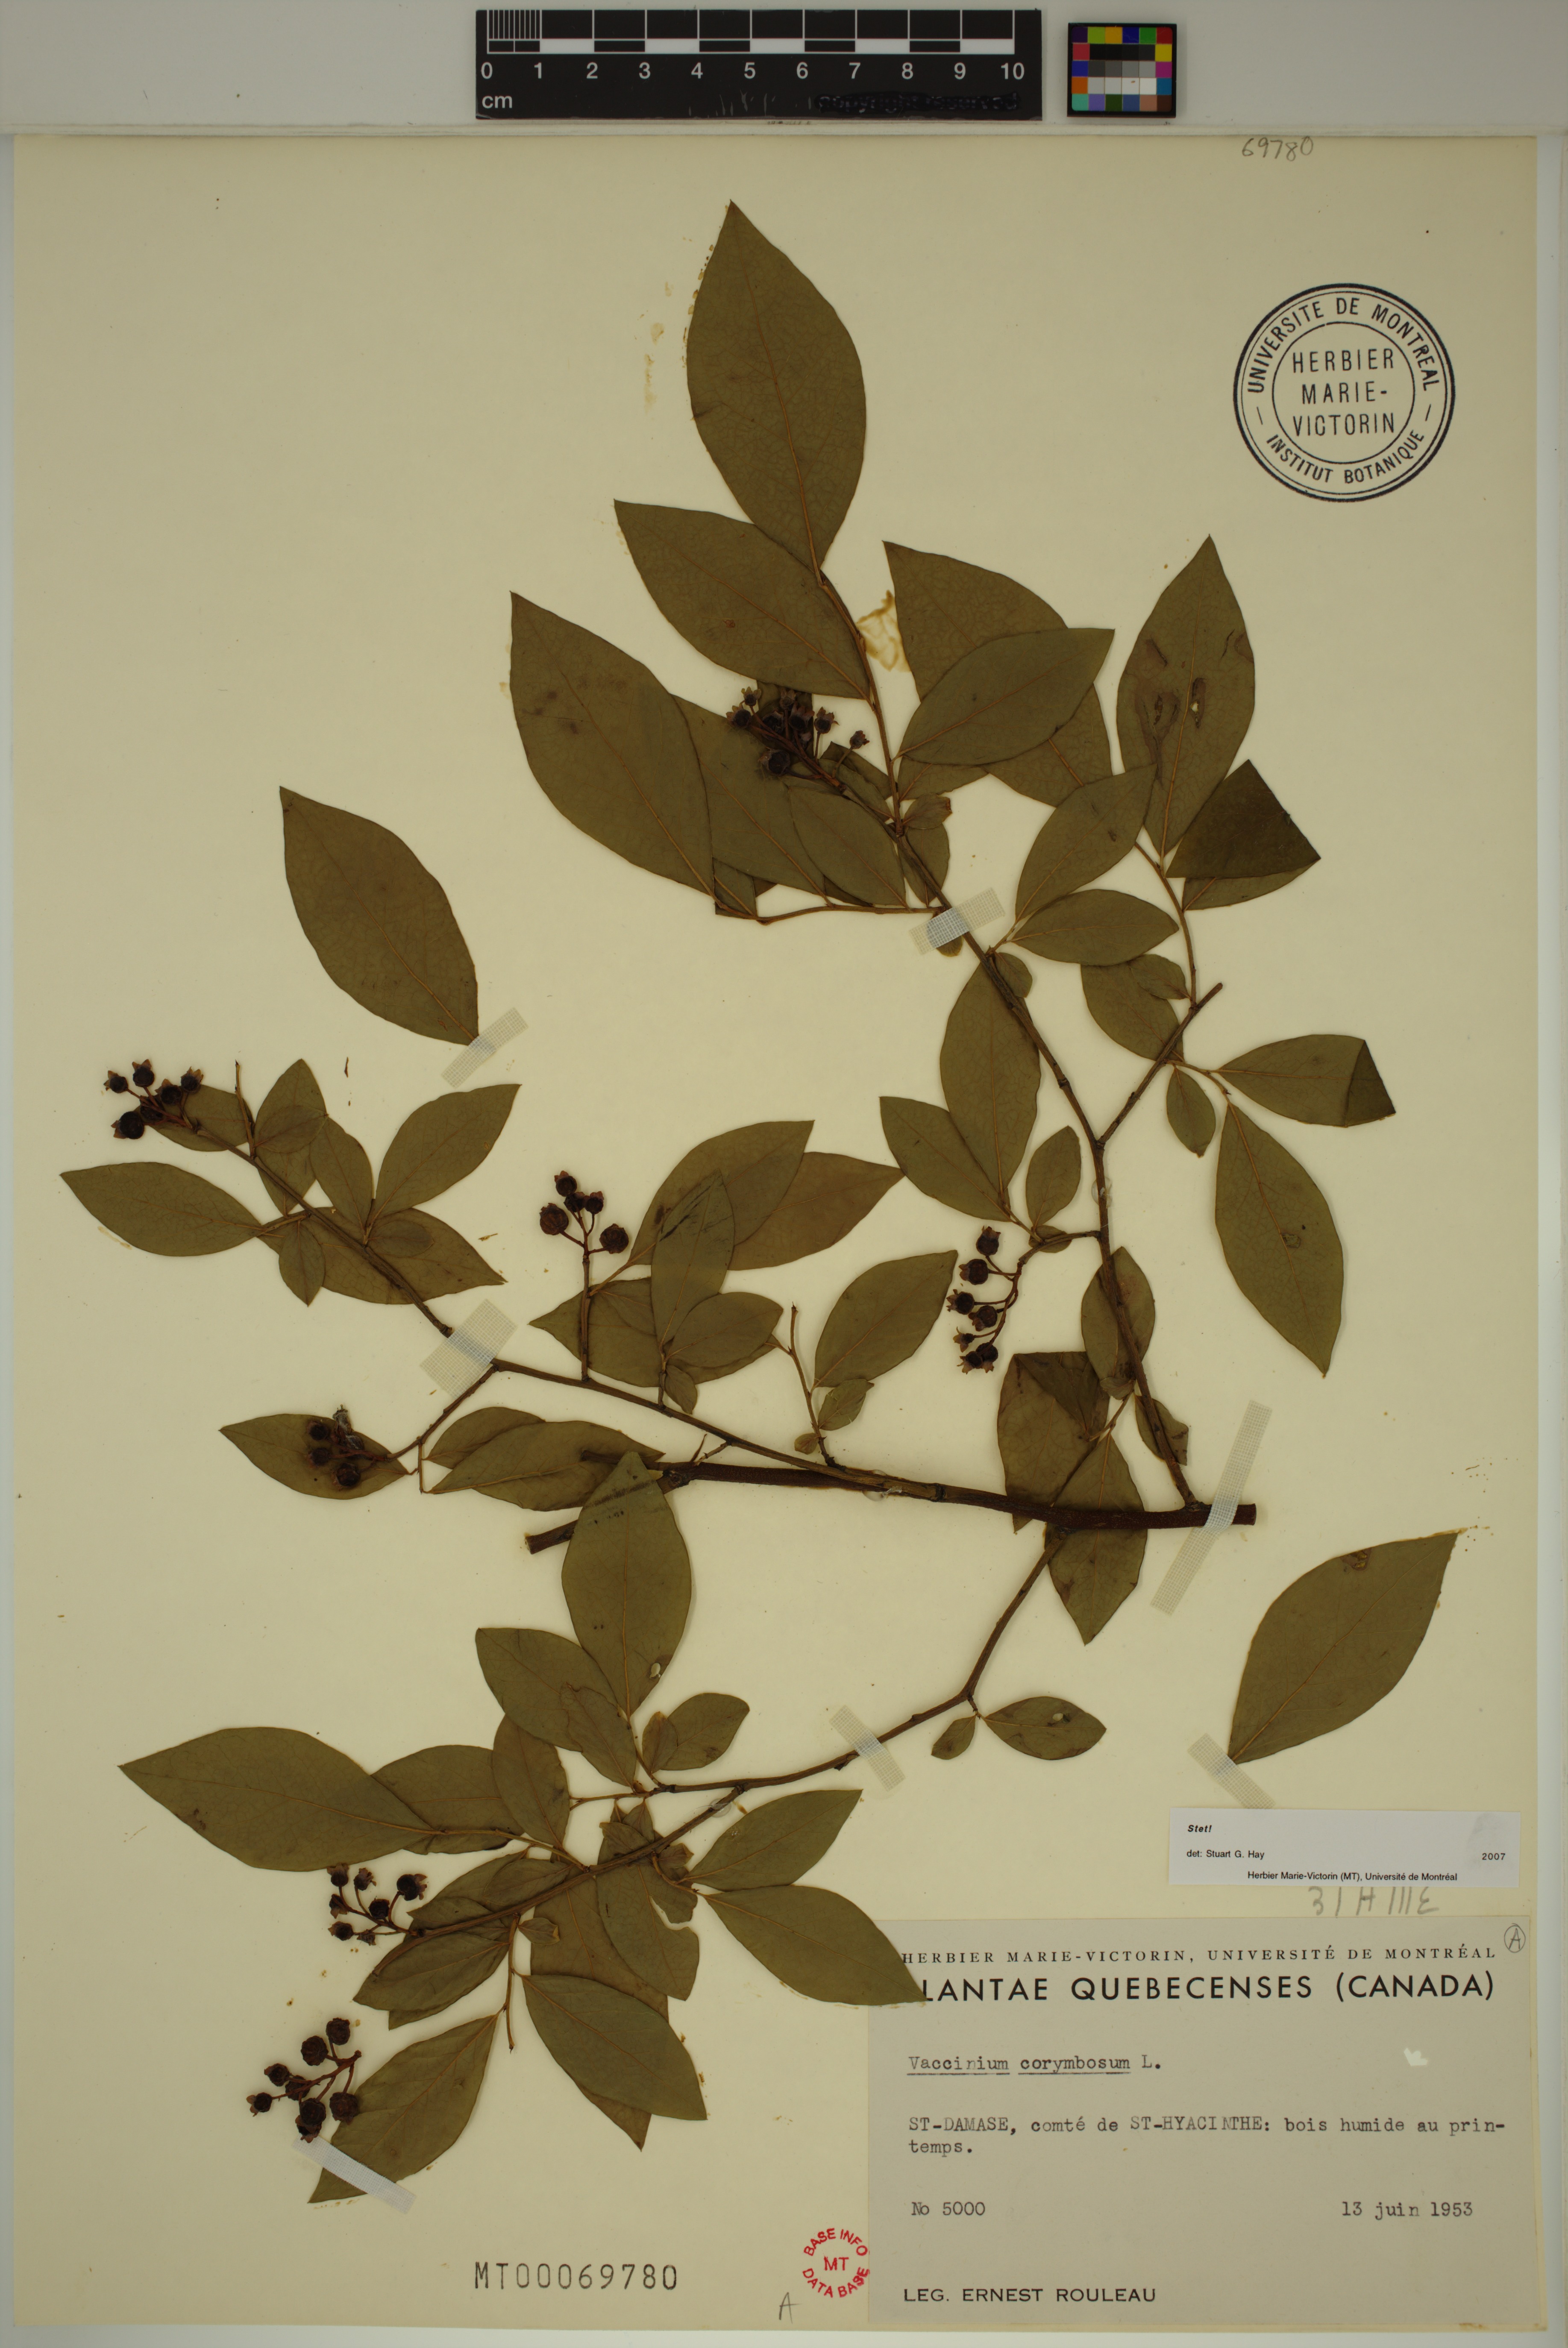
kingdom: Plantae
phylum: Tracheophyta
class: Magnoliopsida
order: Ericales
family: Ericaceae
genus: Vaccinium
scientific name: Vaccinium corymbosum
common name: Blueberry
